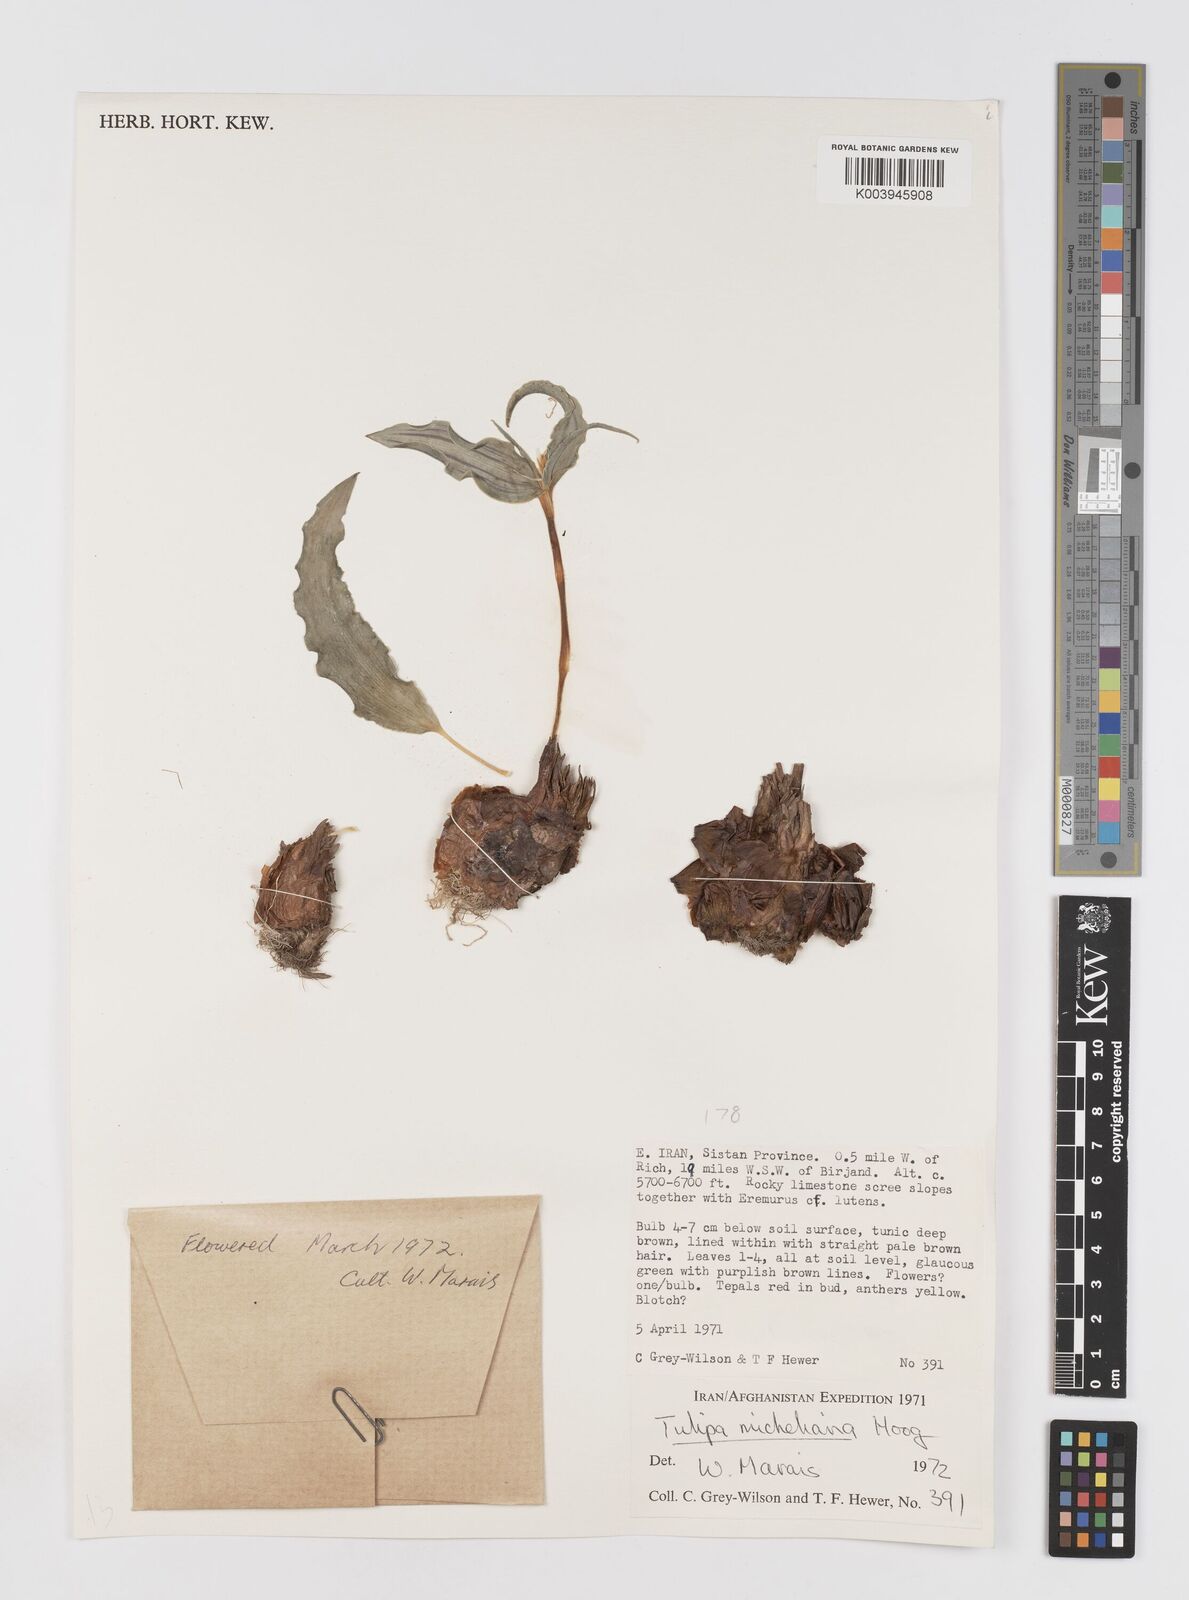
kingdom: Plantae
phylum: Tracheophyta
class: Liliopsida
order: Liliales
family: Liliaceae
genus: Tulipa
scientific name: Tulipa undulatifolia
